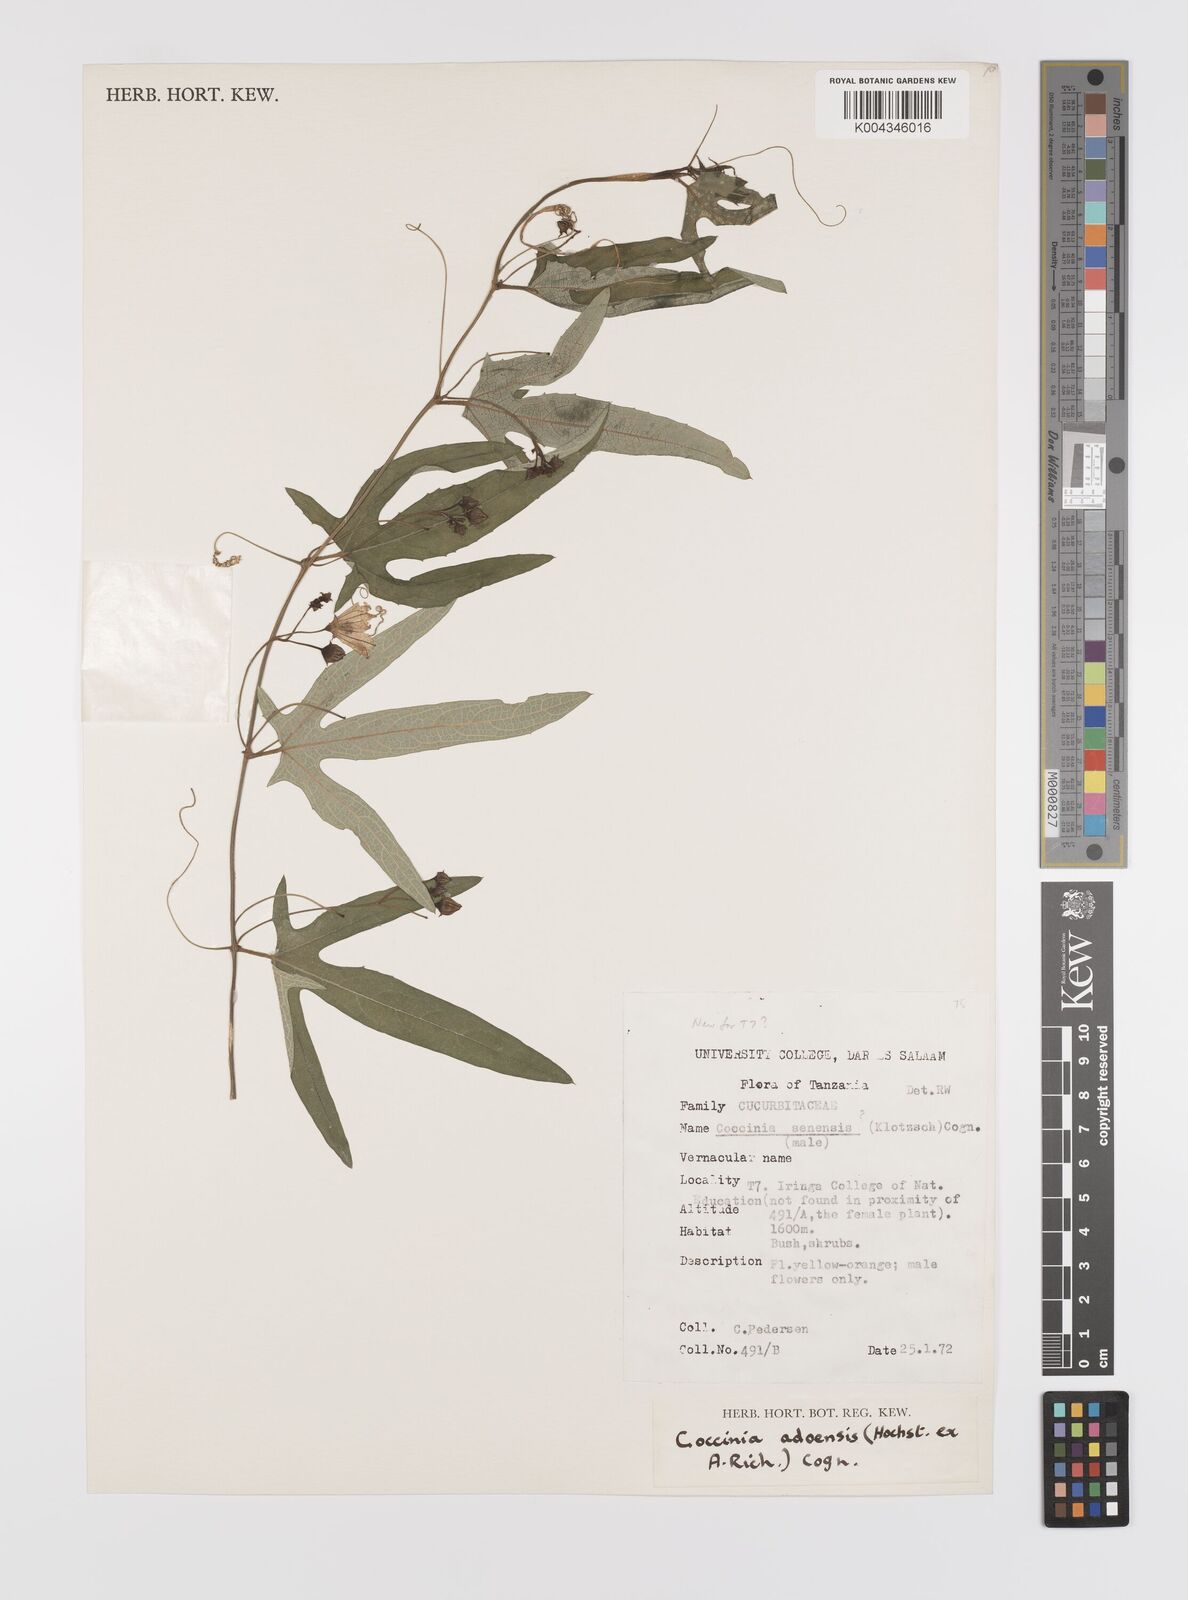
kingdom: Plantae
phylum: Tracheophyta
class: Magnoliopsida
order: Cucurbitales
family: Cucurbitaceae
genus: Coccinia
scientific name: Coccinia adoensis
